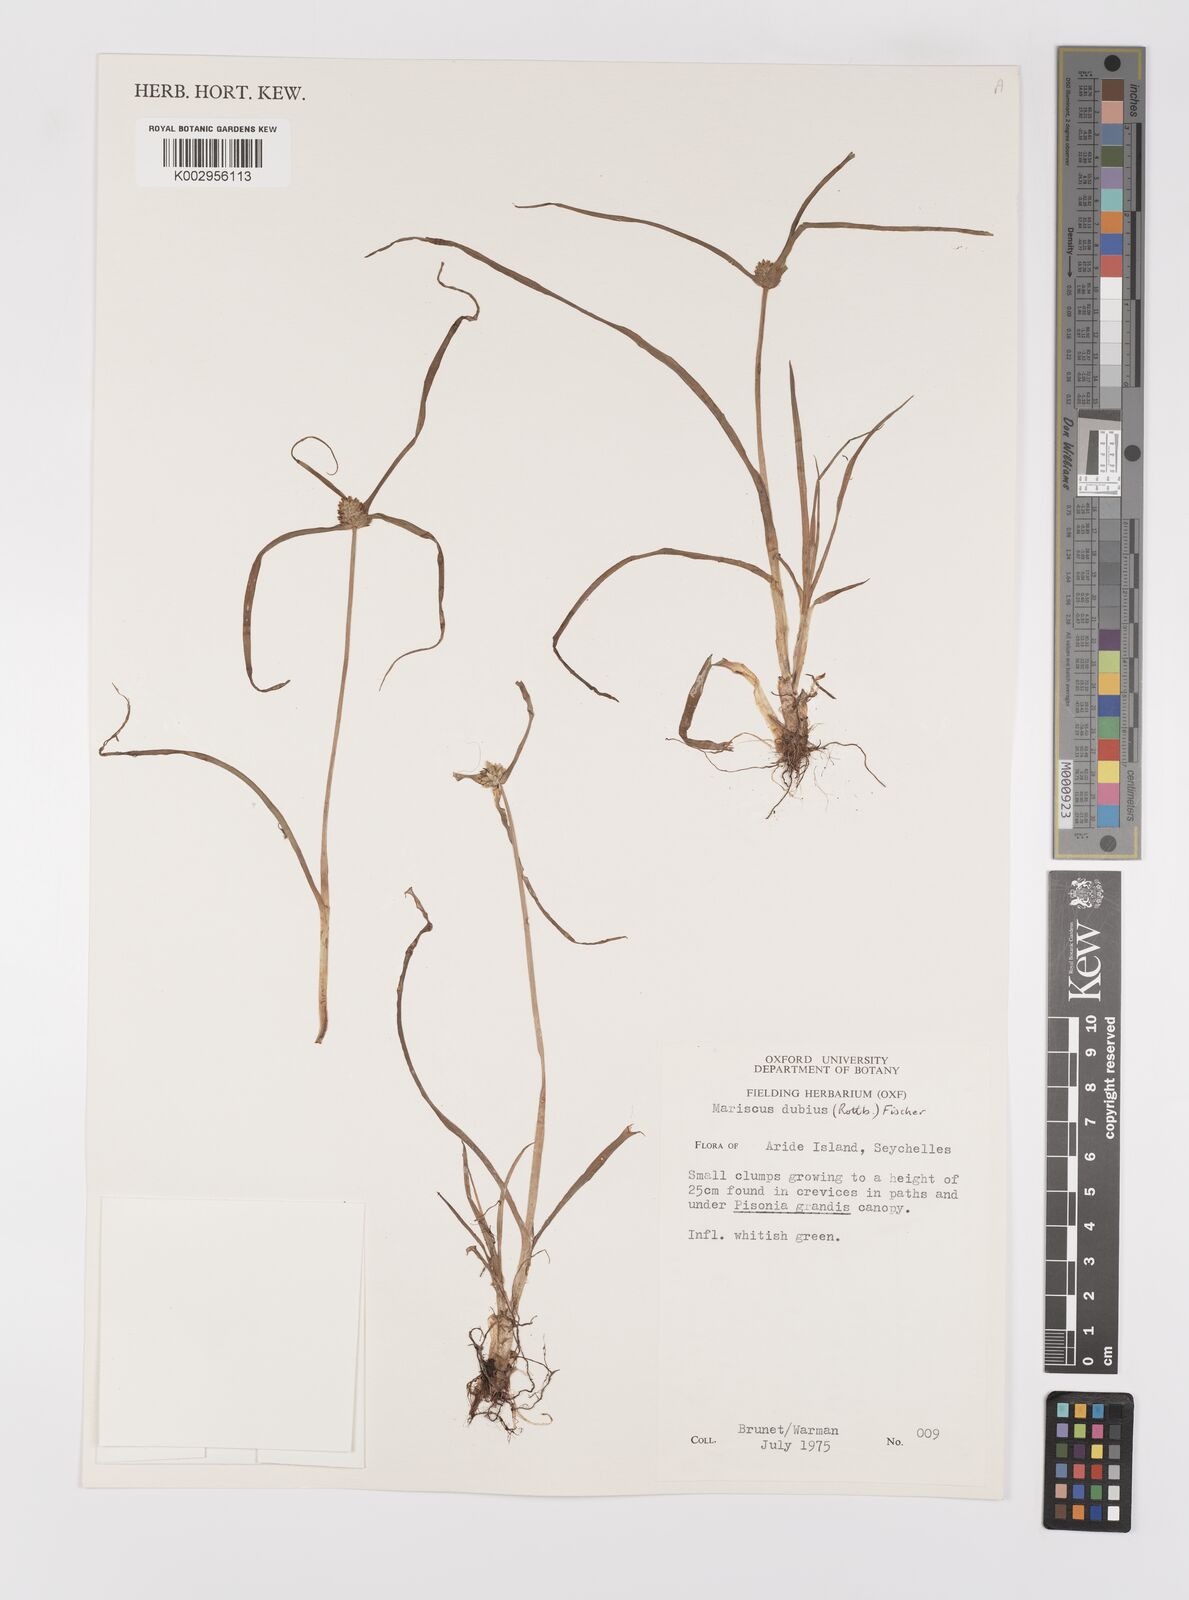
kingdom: Plantae
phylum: Tracheophyta
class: Liliopsida
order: Poales
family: Cyperaceae
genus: Cyperus
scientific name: Cyperus dubius
